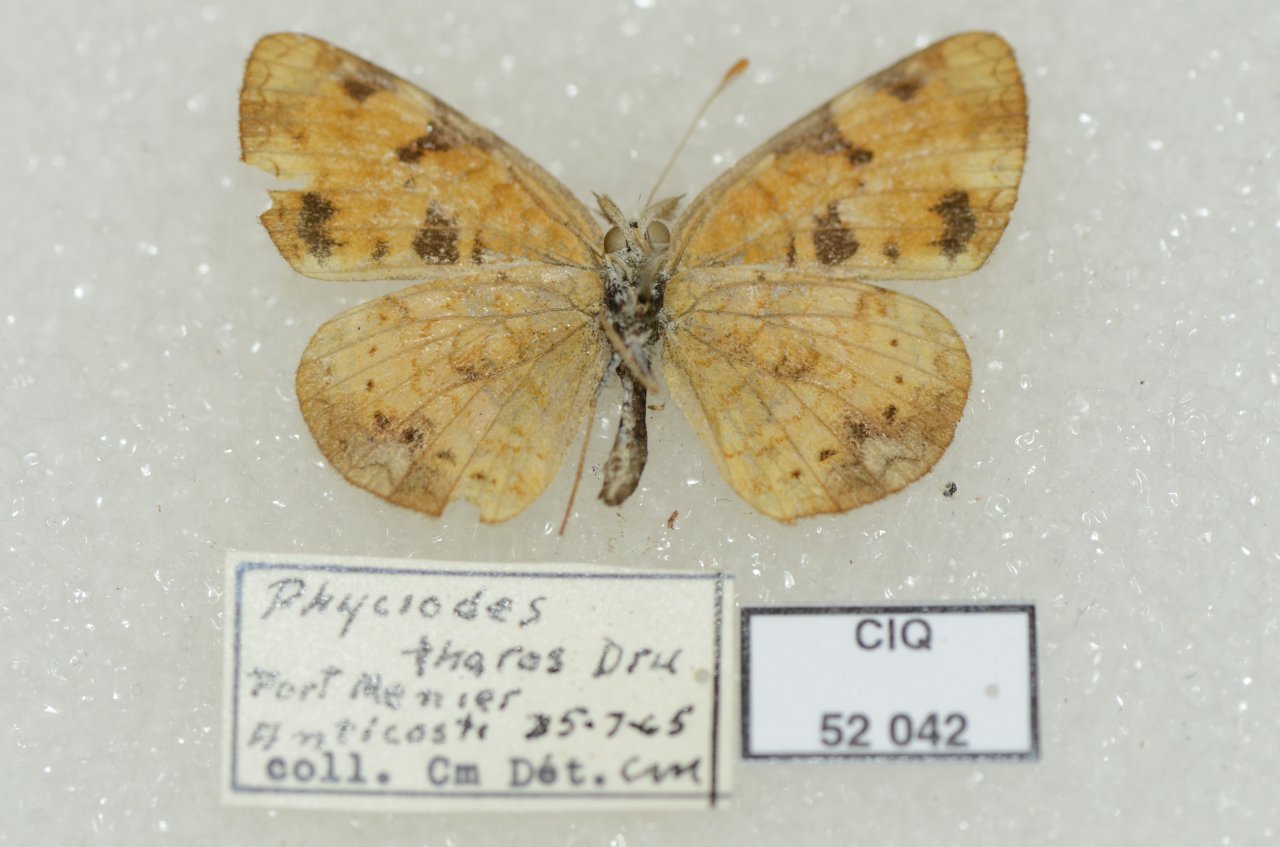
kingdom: Animalia
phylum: Arthropoda
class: Insecta
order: Lepidoptera
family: Nymphalidae
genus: Phyciodes
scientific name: Phyciodes tharos
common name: Northern Crescent
